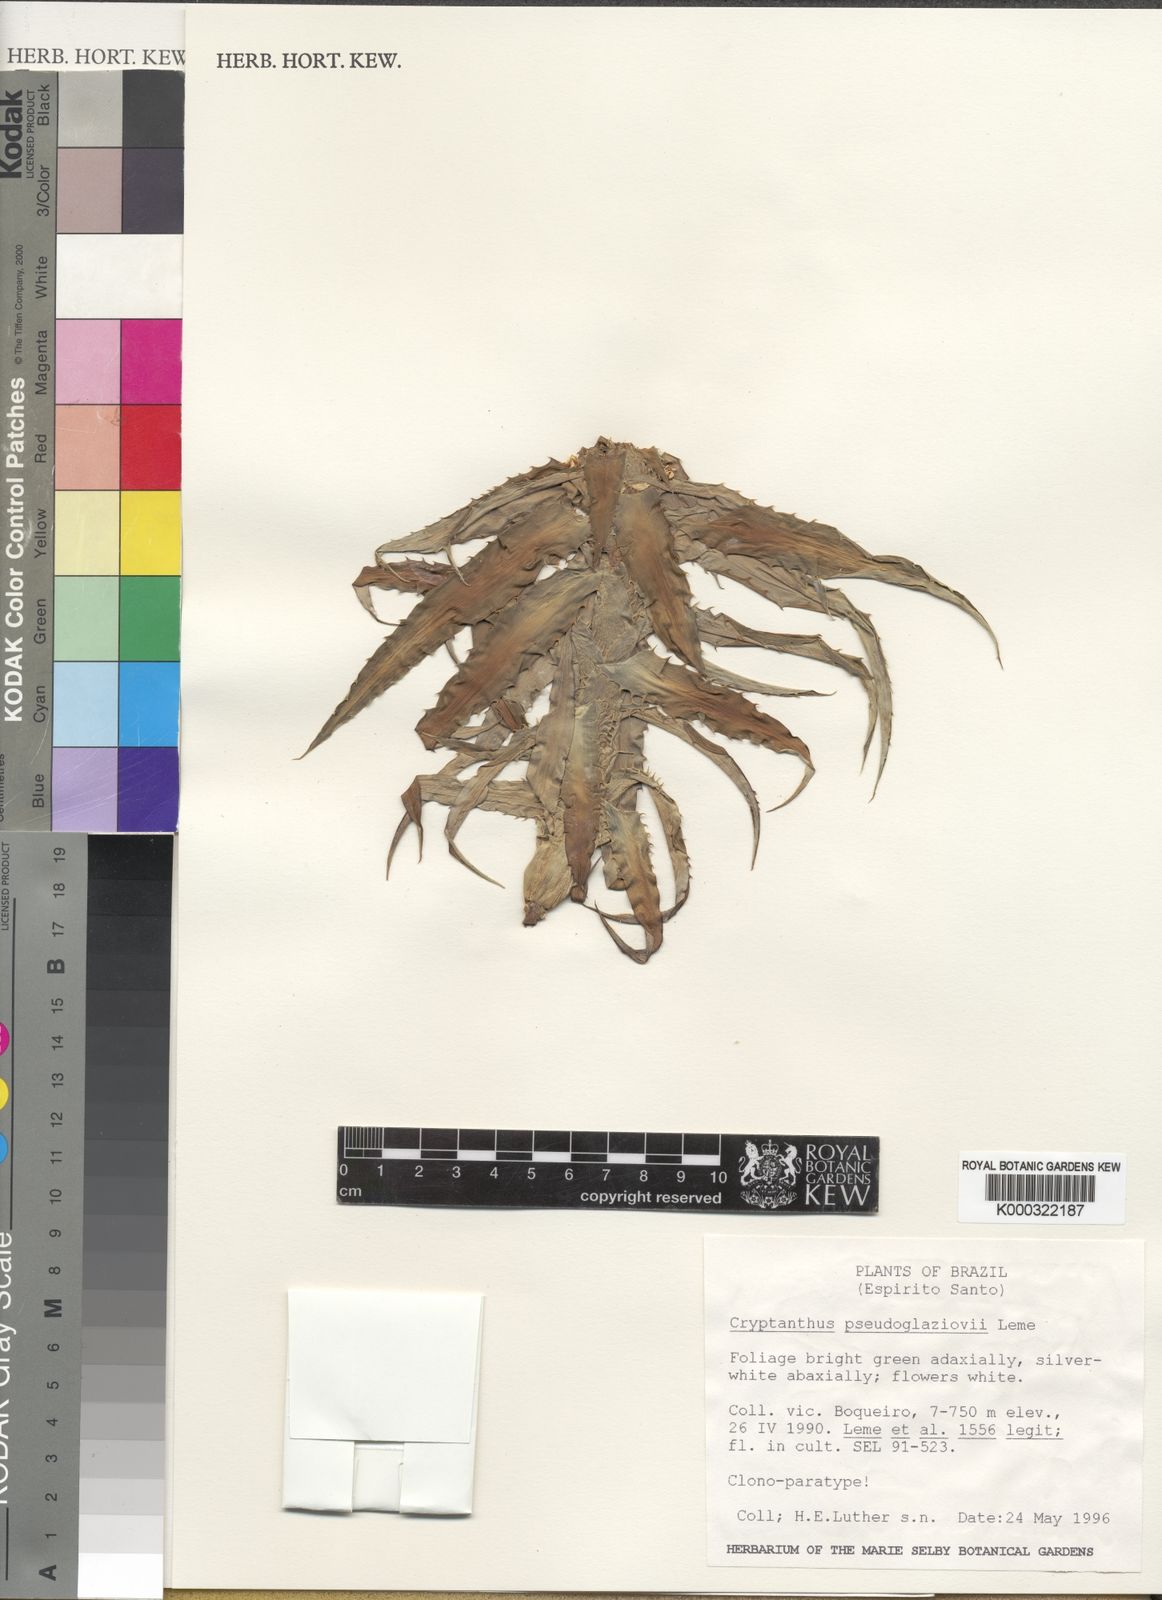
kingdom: Plantae
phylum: Tracheophyta
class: Liliopsida
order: Poales
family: Bromeliaceae
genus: Rokautskyia
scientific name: Rokautskyia pseudoglaziovii
